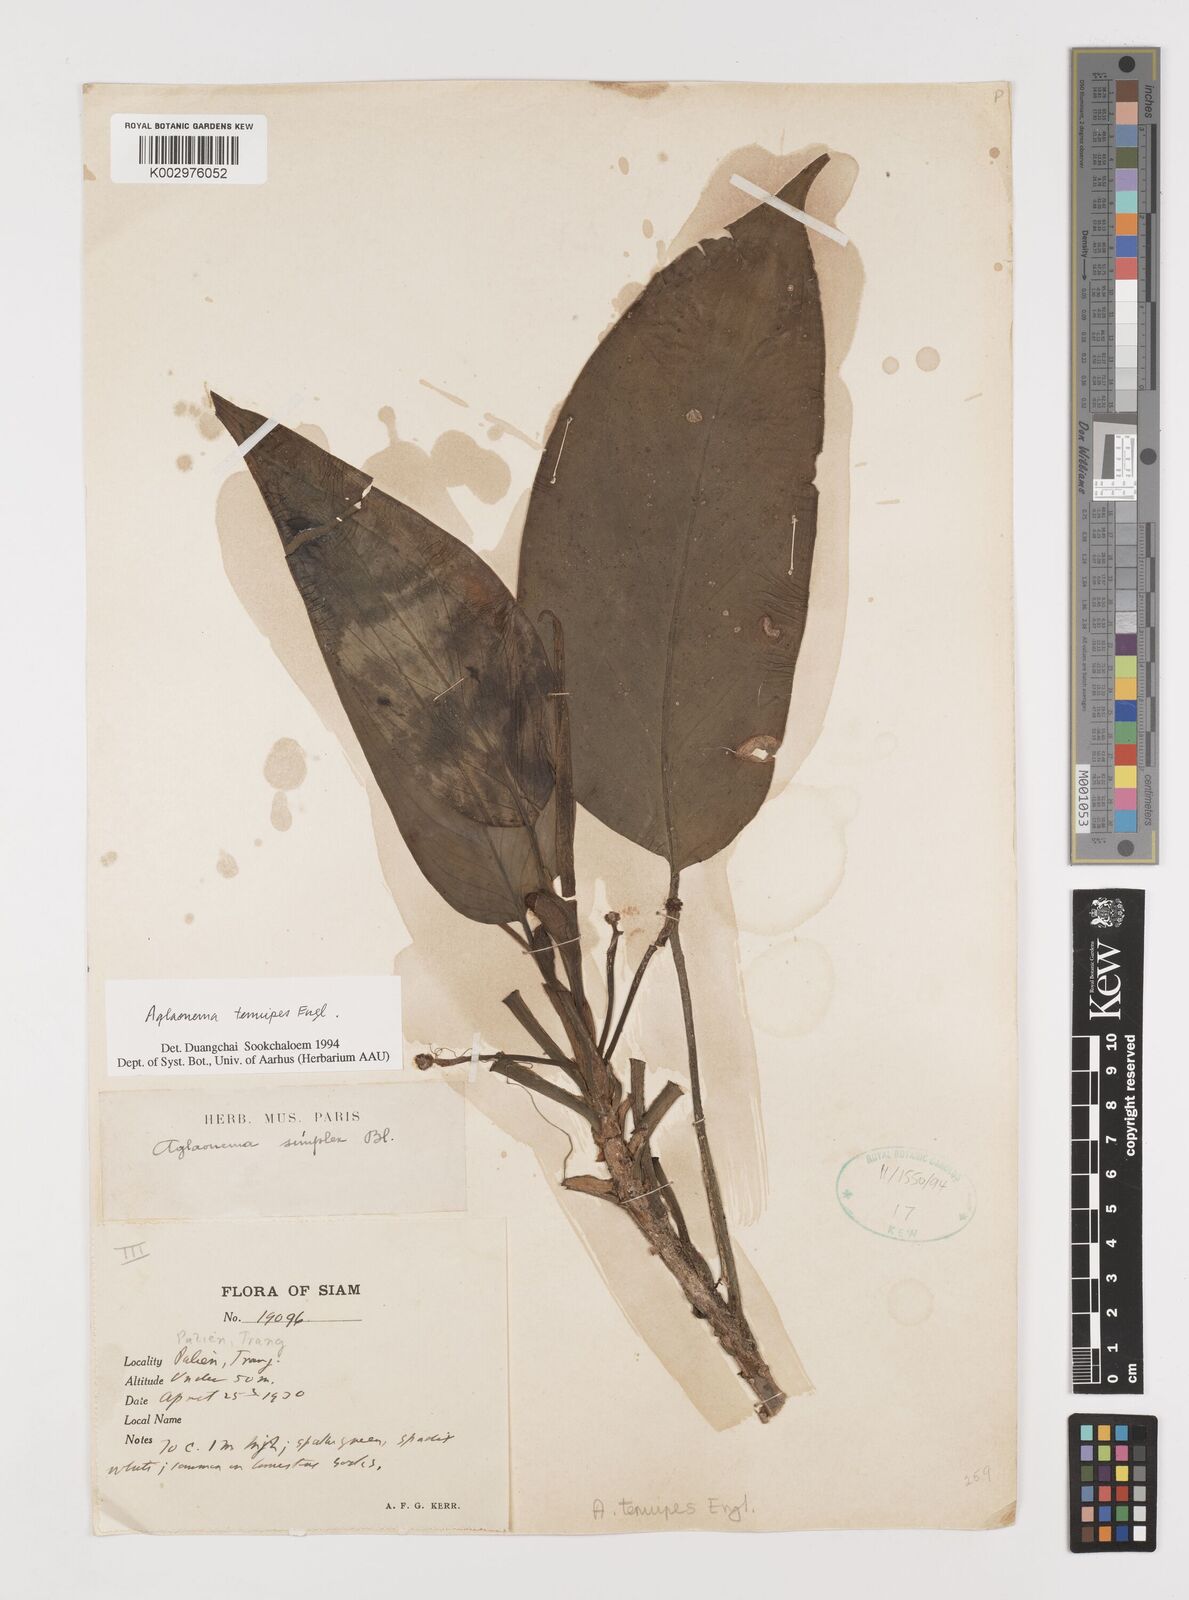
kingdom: Plantae
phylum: Tracheophyta
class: Liliopsida
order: Alismatales
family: Araceae
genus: Aglaonema
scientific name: Aglaonema simplex
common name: Malayan-sword
